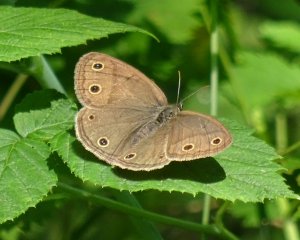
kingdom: Animalia
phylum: Arthropoda
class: Insecta
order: Lepidoptera
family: Nymphalidae
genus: Euptychia
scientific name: Euptychia cymela
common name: Little Wood Satyr
